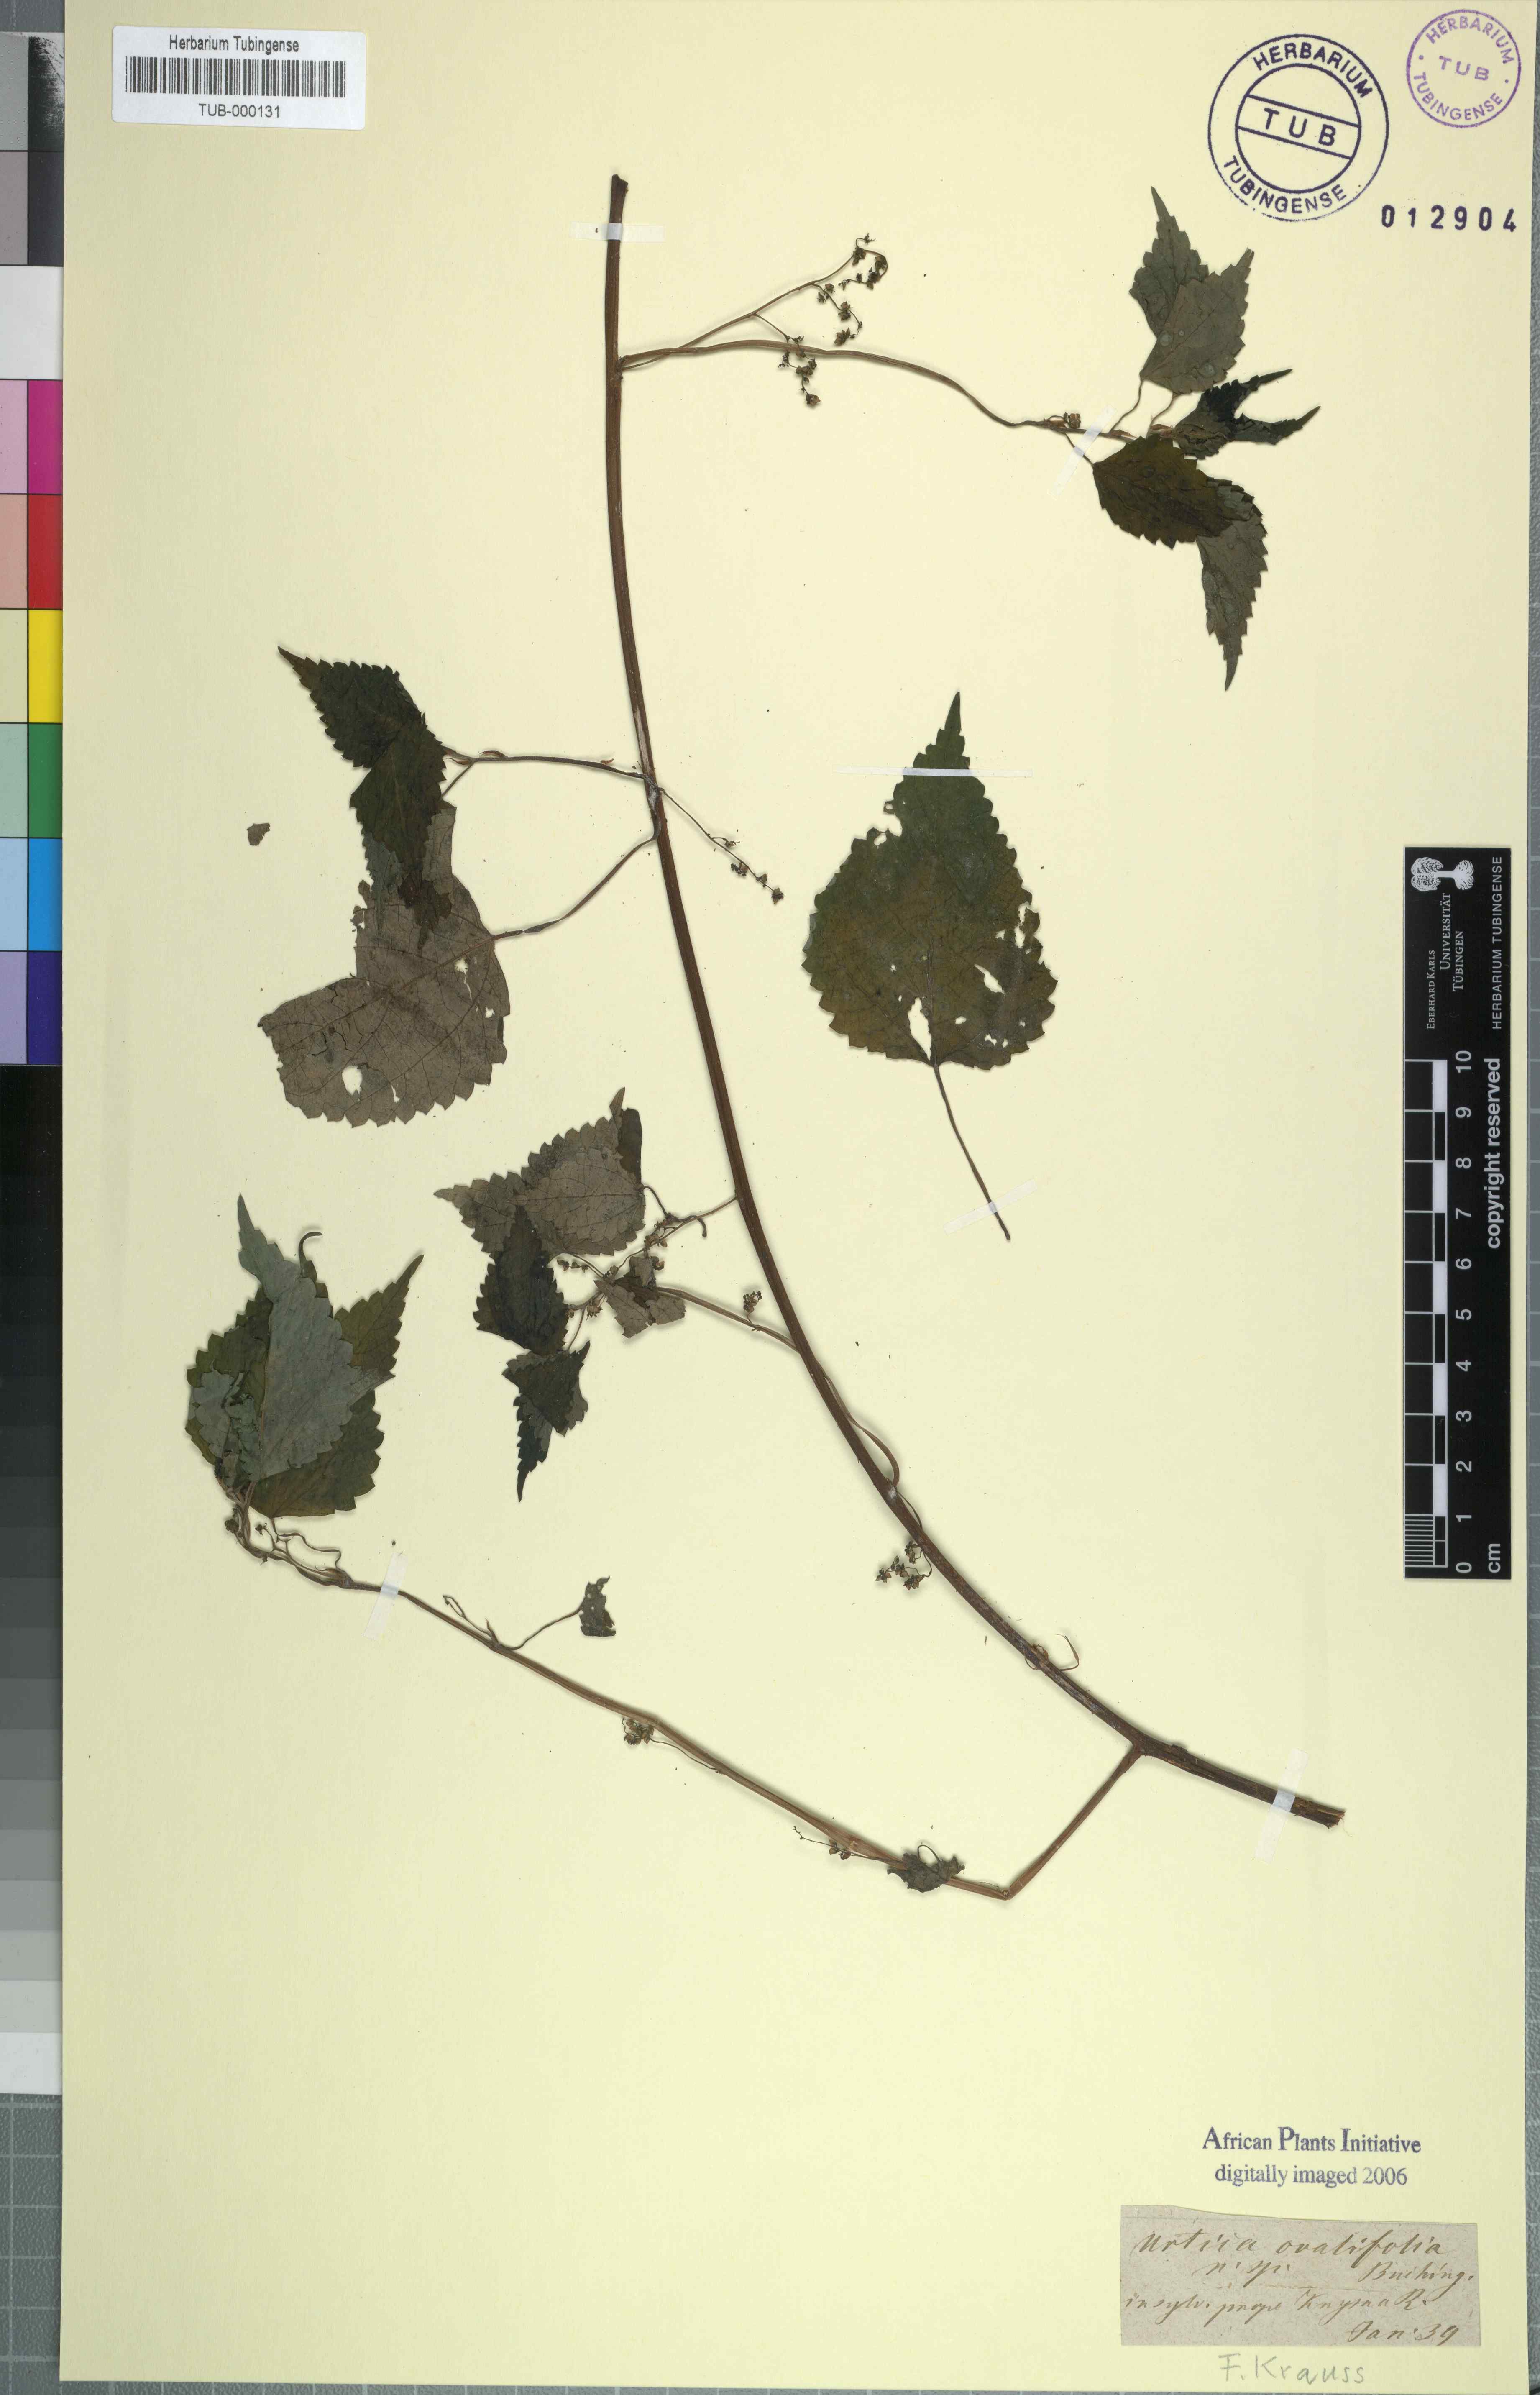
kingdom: Plantae
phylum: Tracheophyta
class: Magnoliopsida
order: Rosales
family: Urticaceae
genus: Didymodoxa
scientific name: Didymodoxa capensis
